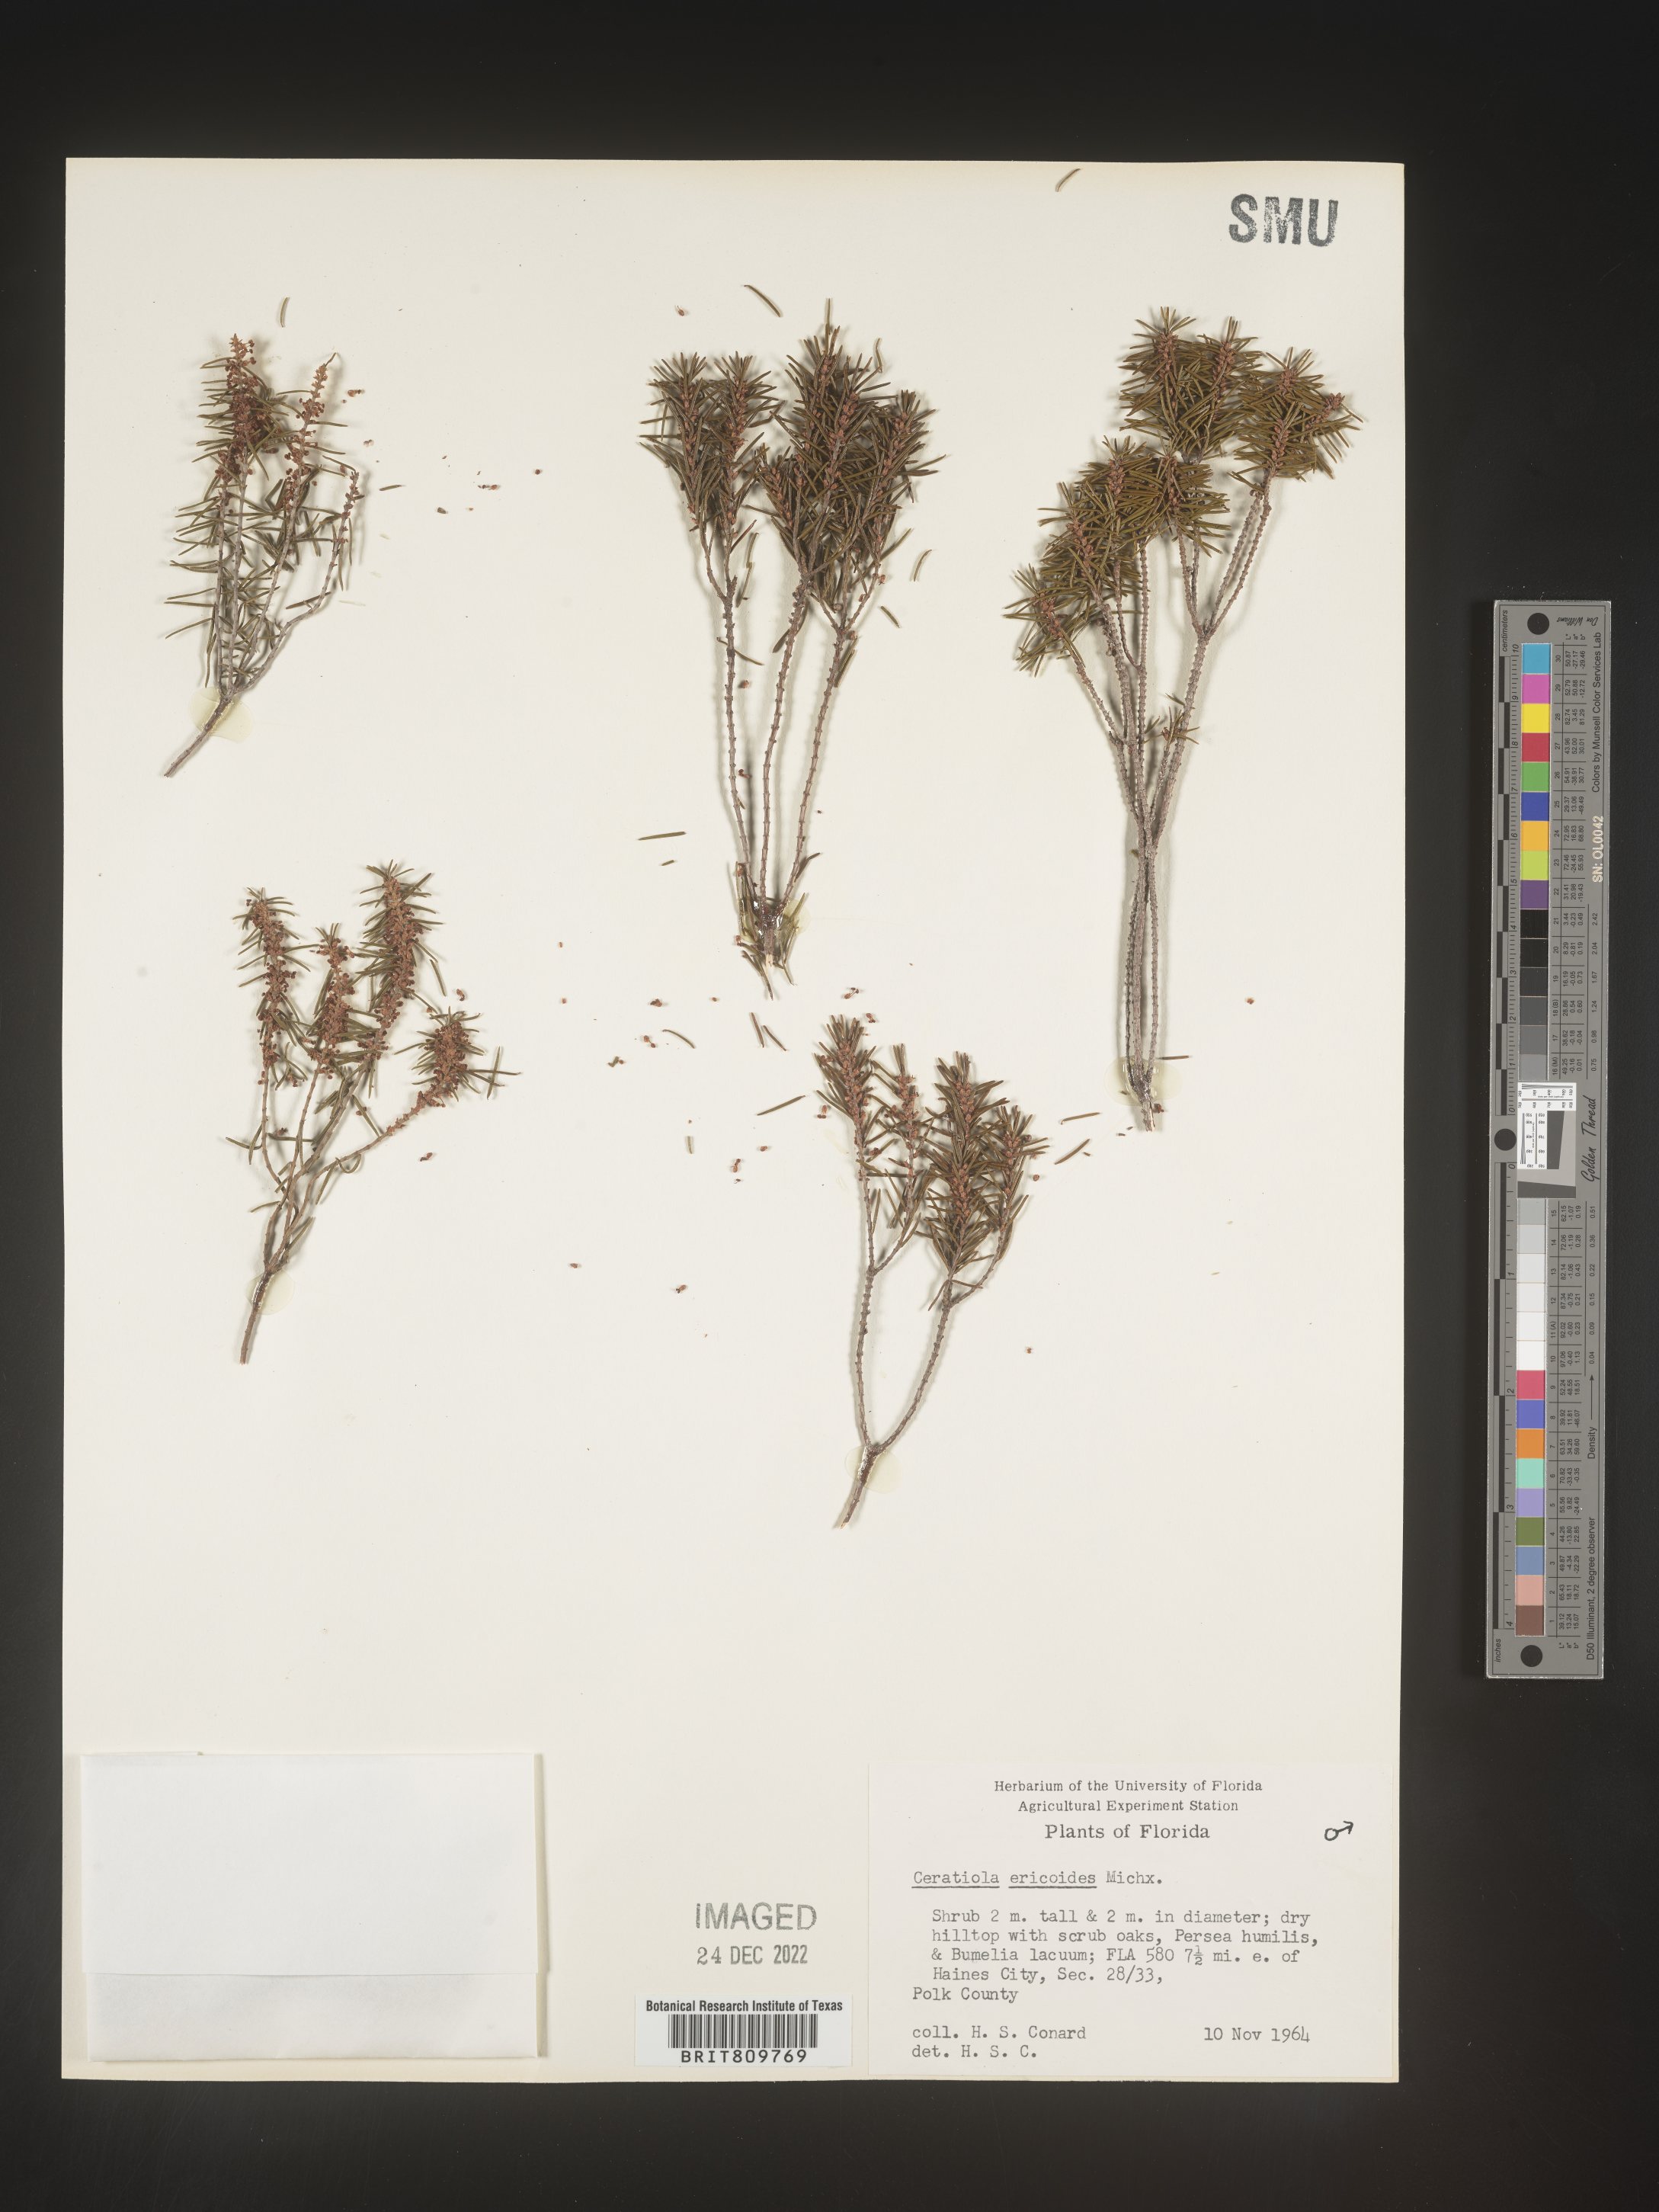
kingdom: Plantae
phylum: Tracheophyta
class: Magnoliopsida
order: Ericales
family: Ericaceae
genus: Ceratiola
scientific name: Ceratiola ericoides
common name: Sandhill-rosemary
